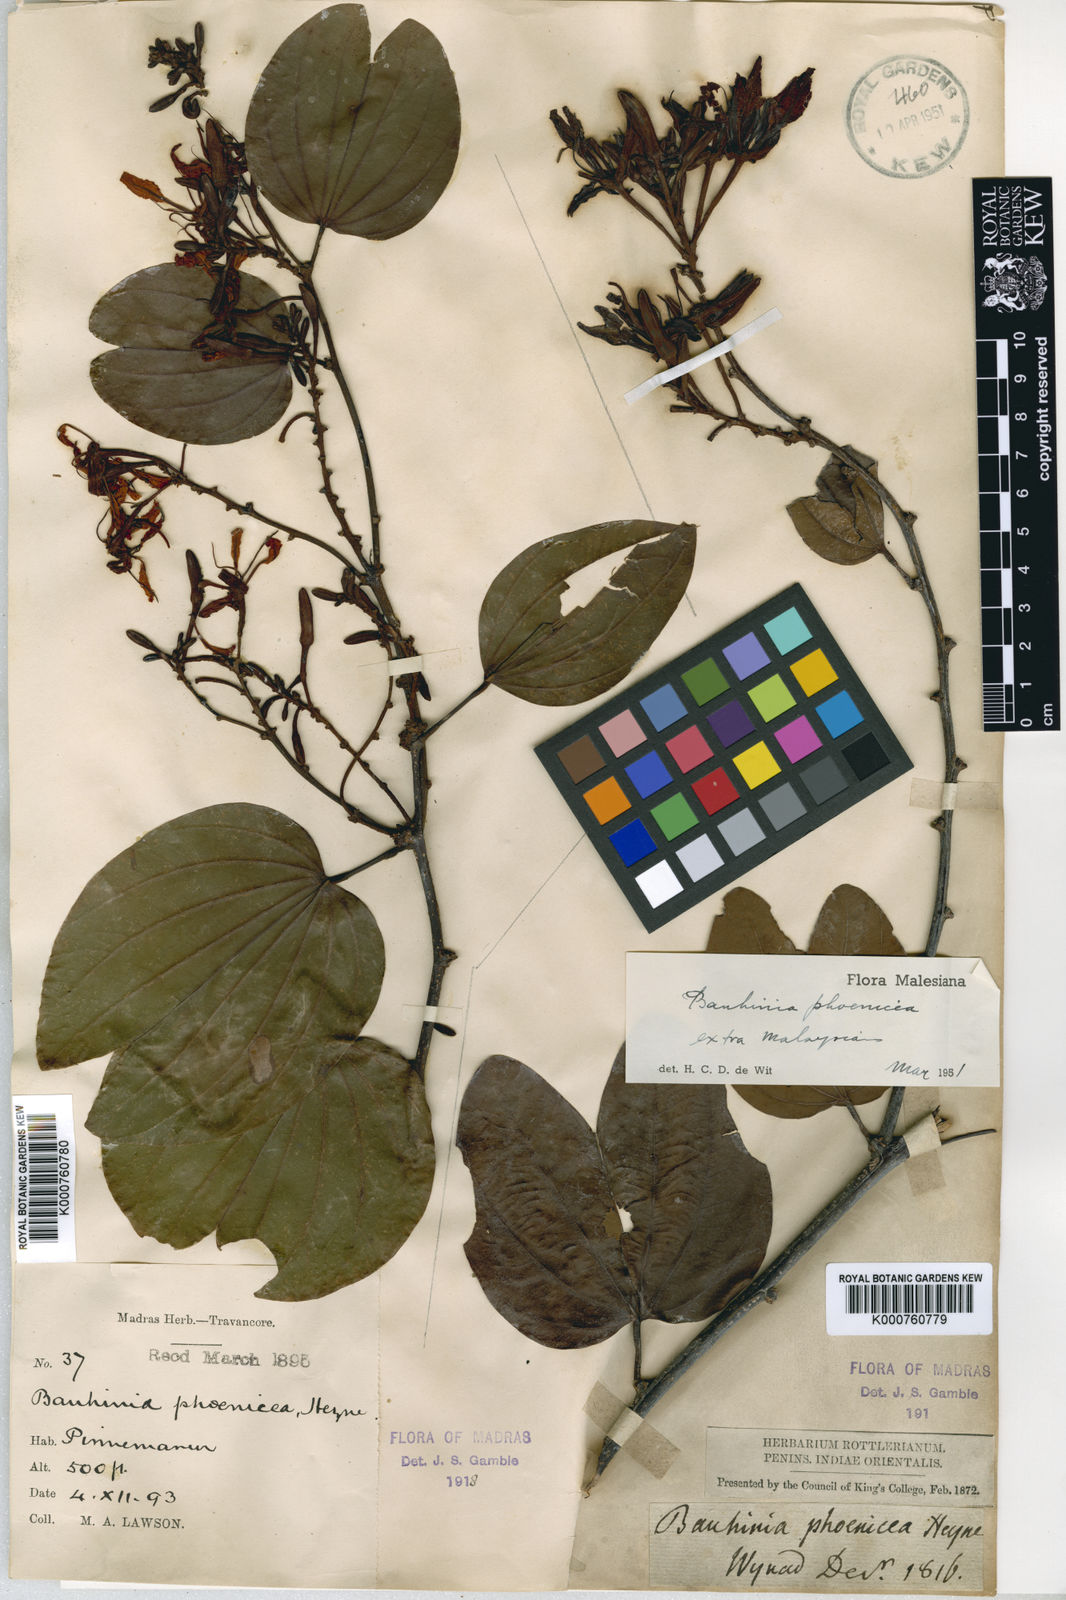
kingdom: Plantae
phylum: Tracheophyta
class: Magnoliopsida
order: Fabales
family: Fabaceae
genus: Bauhinia
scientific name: Bauhinia
